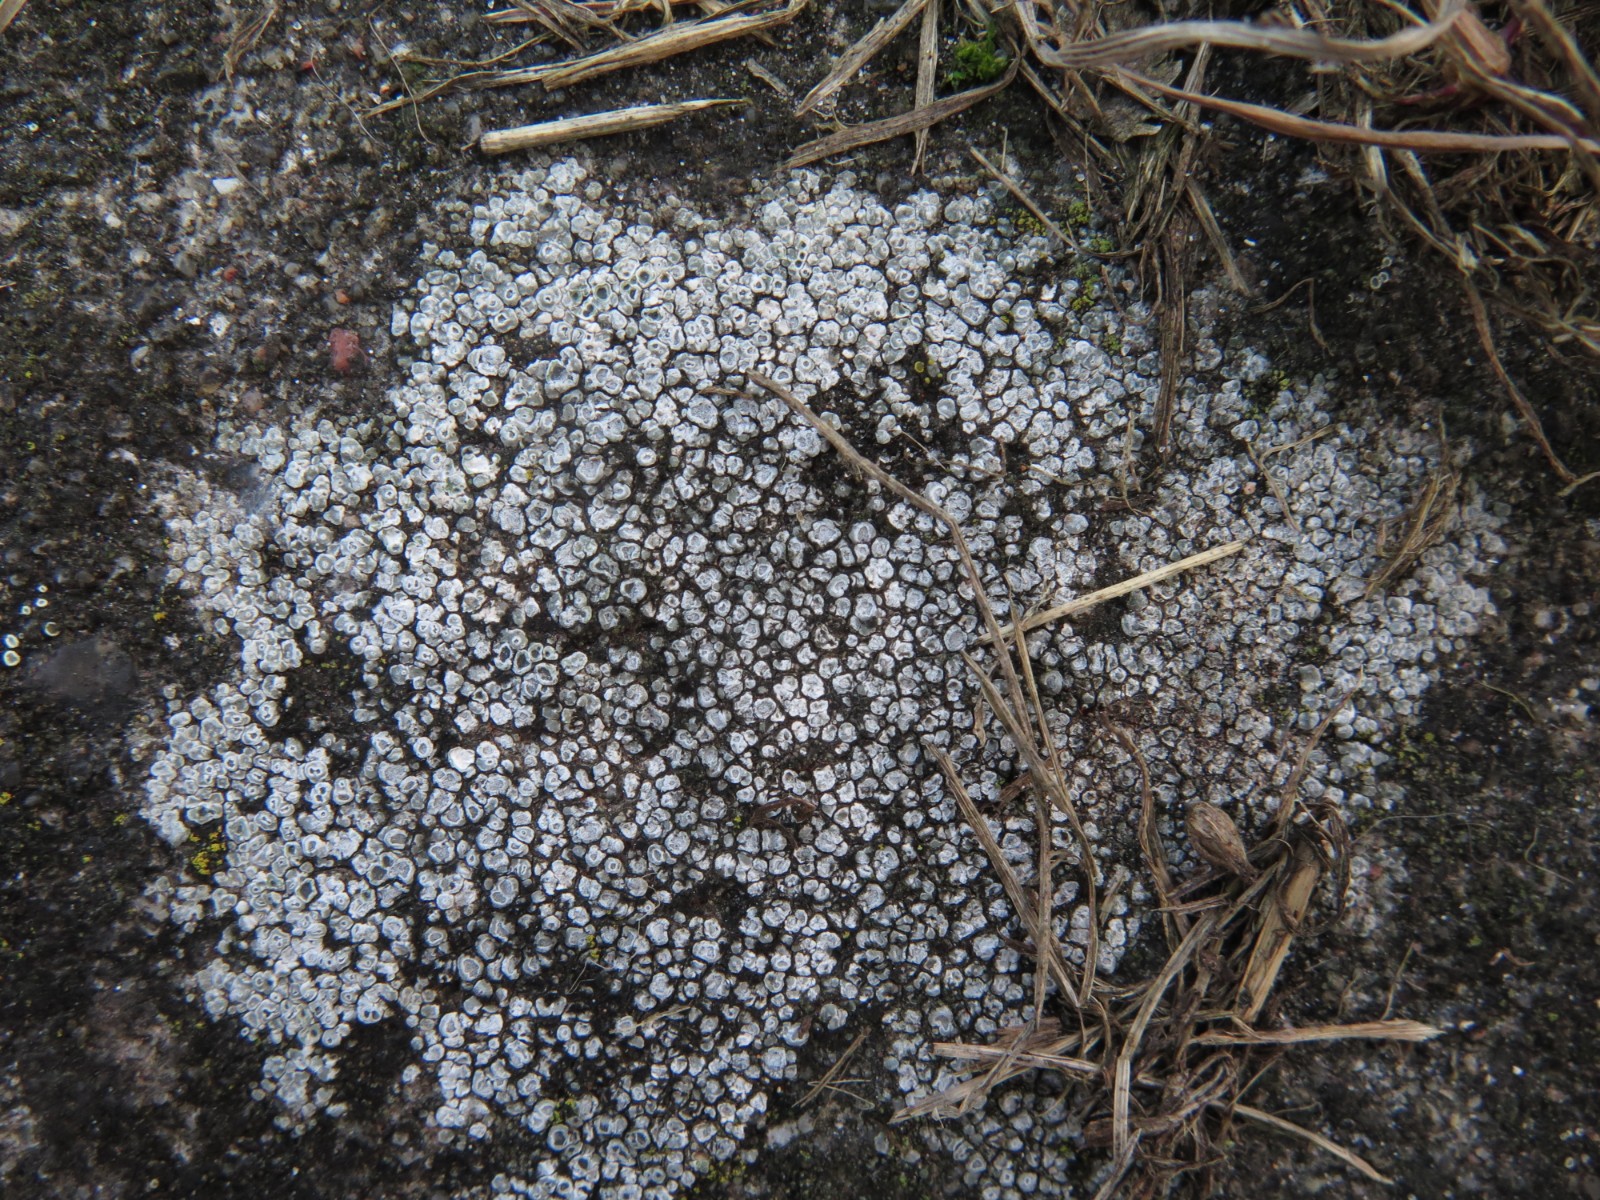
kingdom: Fungi
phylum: Ascomycota
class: Lecanoromycetes
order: Pertusariales
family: Megasporaceae
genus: Circinaria
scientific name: Circinaria contorta
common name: indviklet hulskivelav
